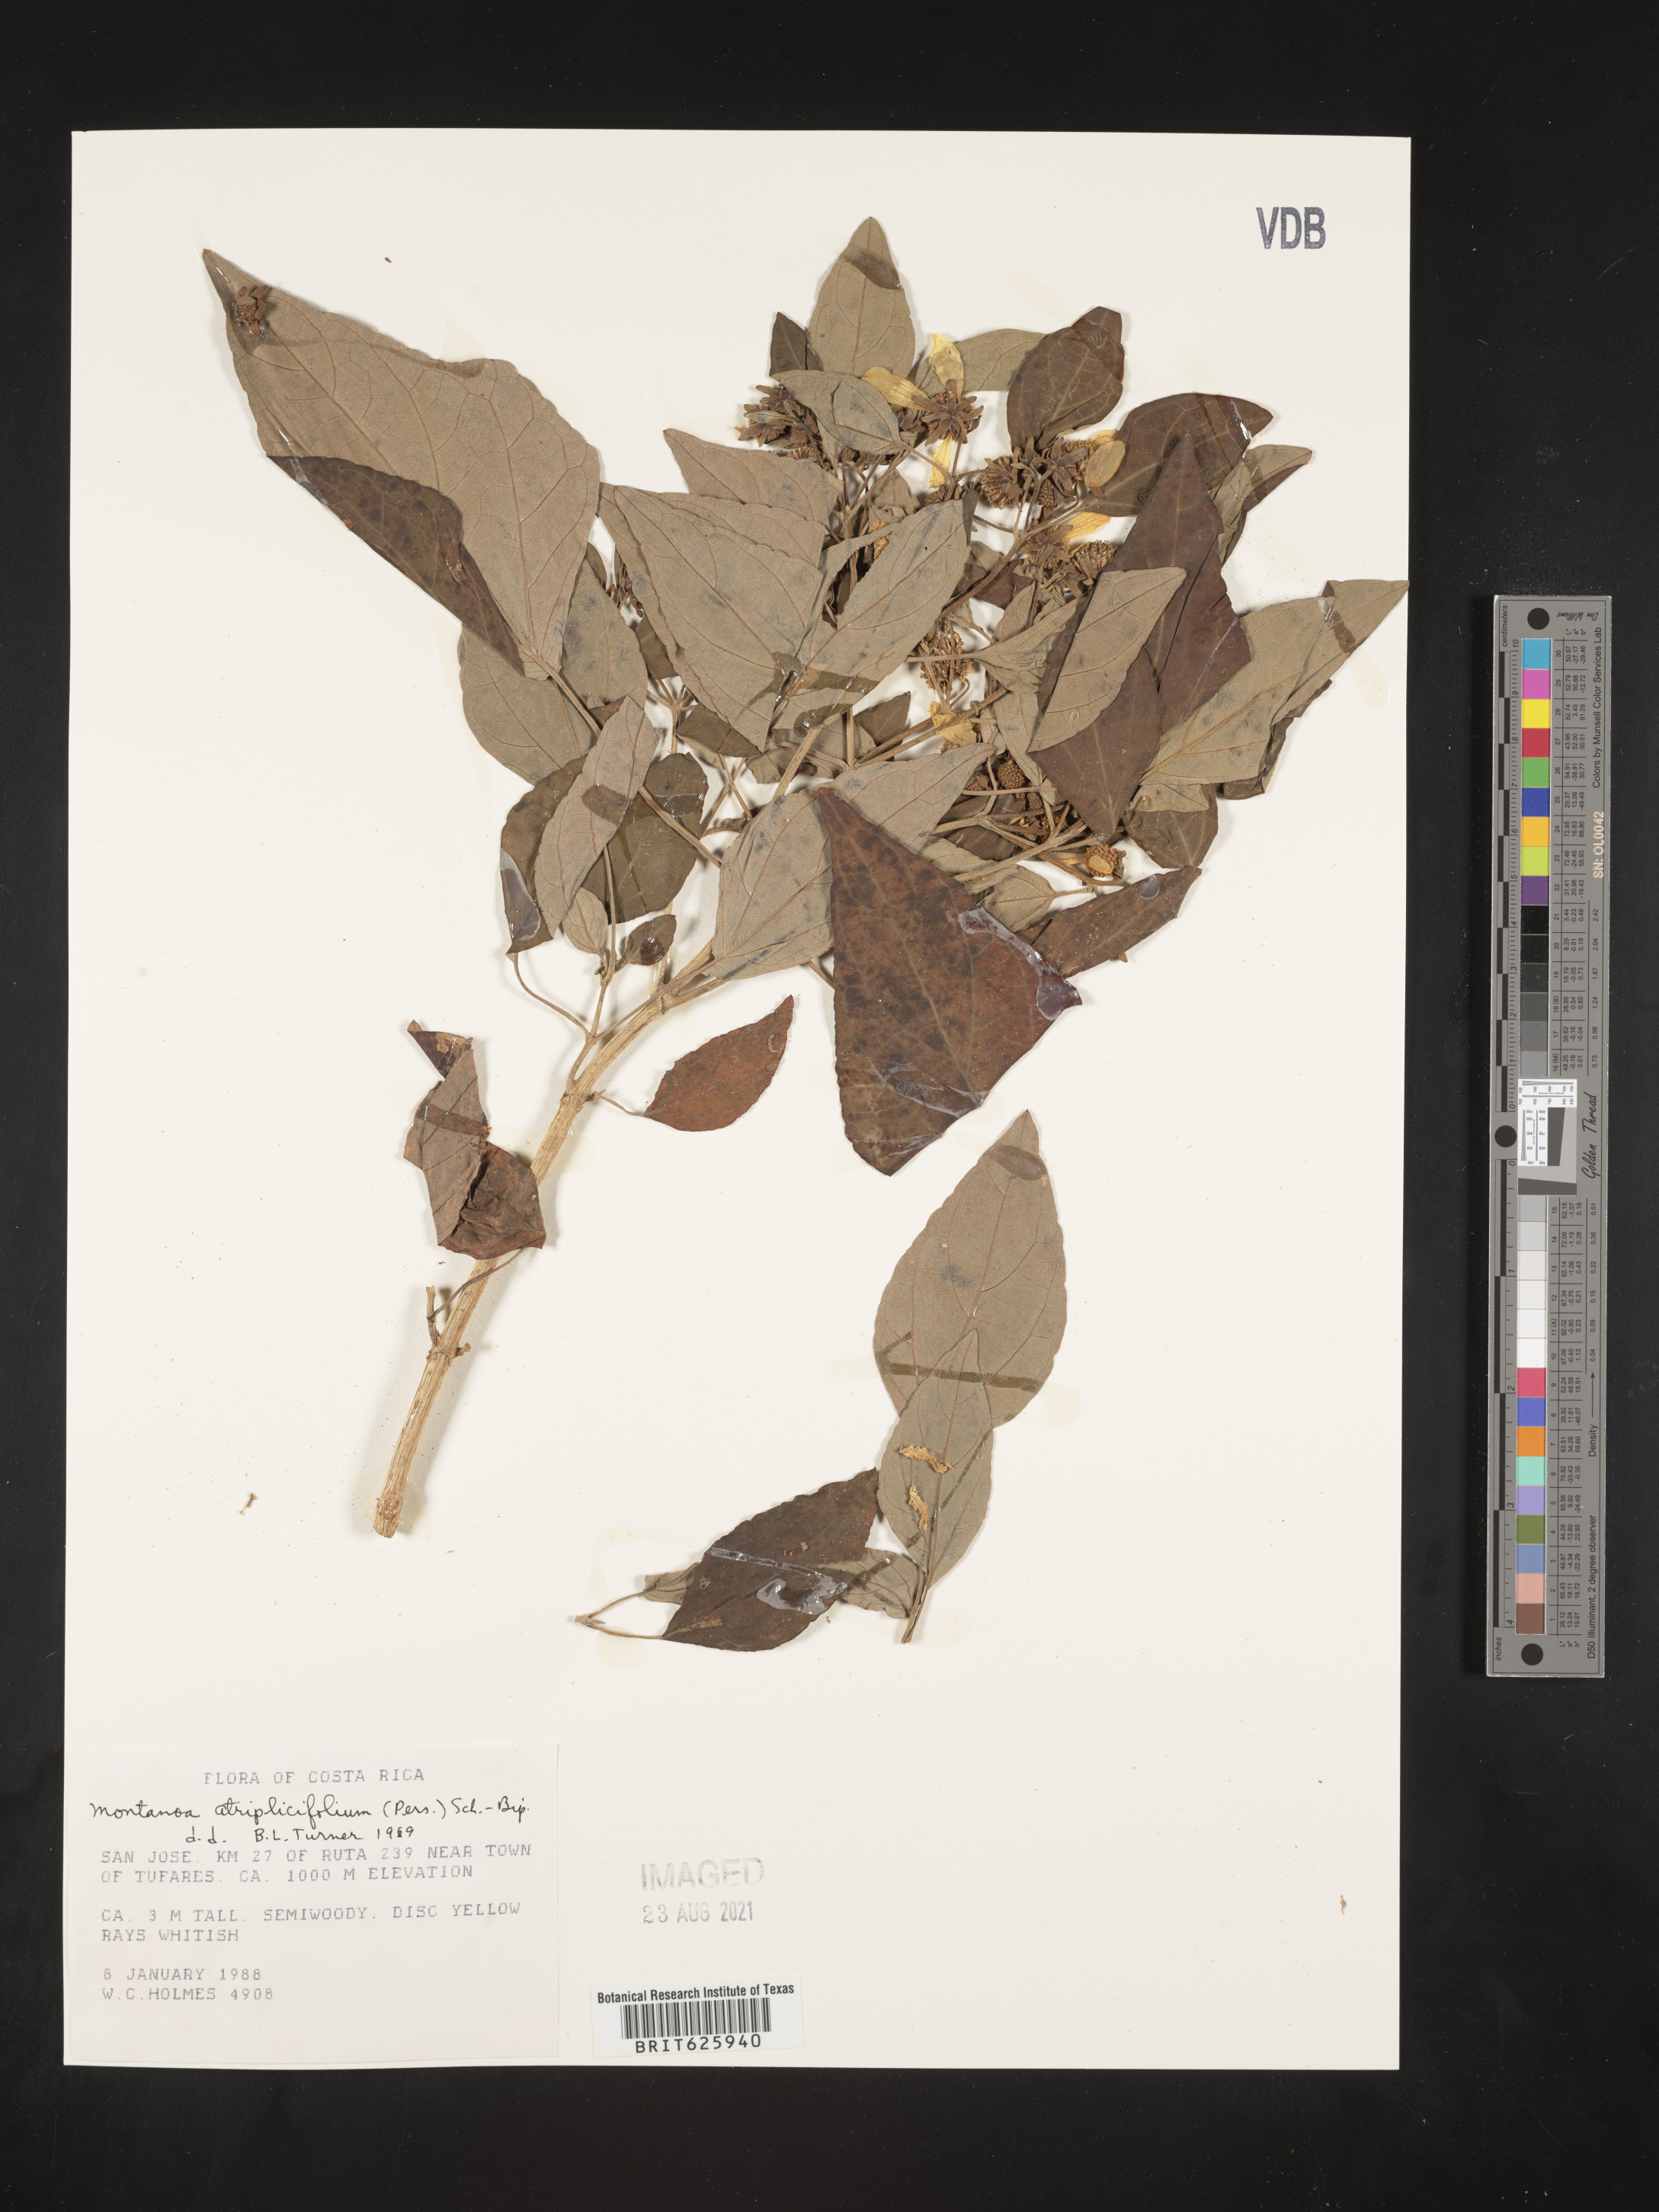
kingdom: Plantae
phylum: Tracheophyta
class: Magnoliopsida
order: Asterales
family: Asteraceae
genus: Montanoa
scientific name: Montanoa atriplicifolia
